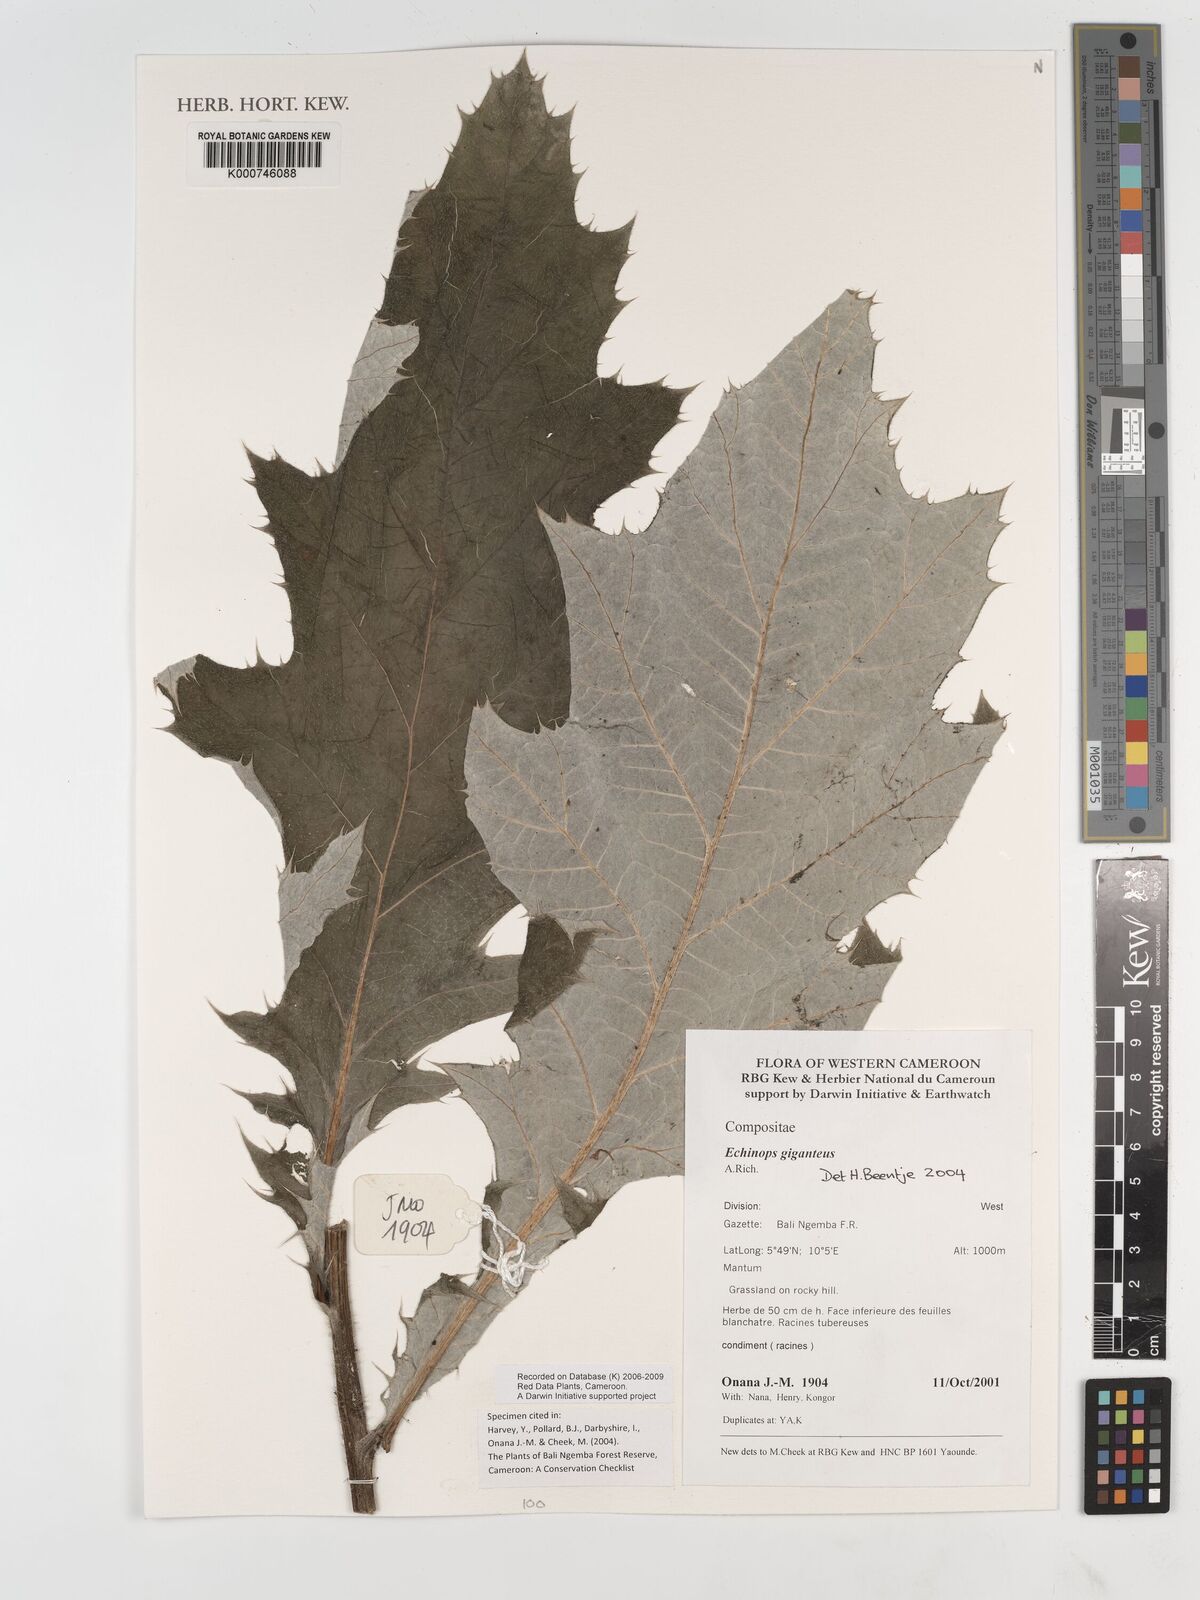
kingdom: Plantae
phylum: Tracheophyta
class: Magnoliopsida
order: Asterales
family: Asteraceae
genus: Echinops
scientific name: Echinops giganteus
